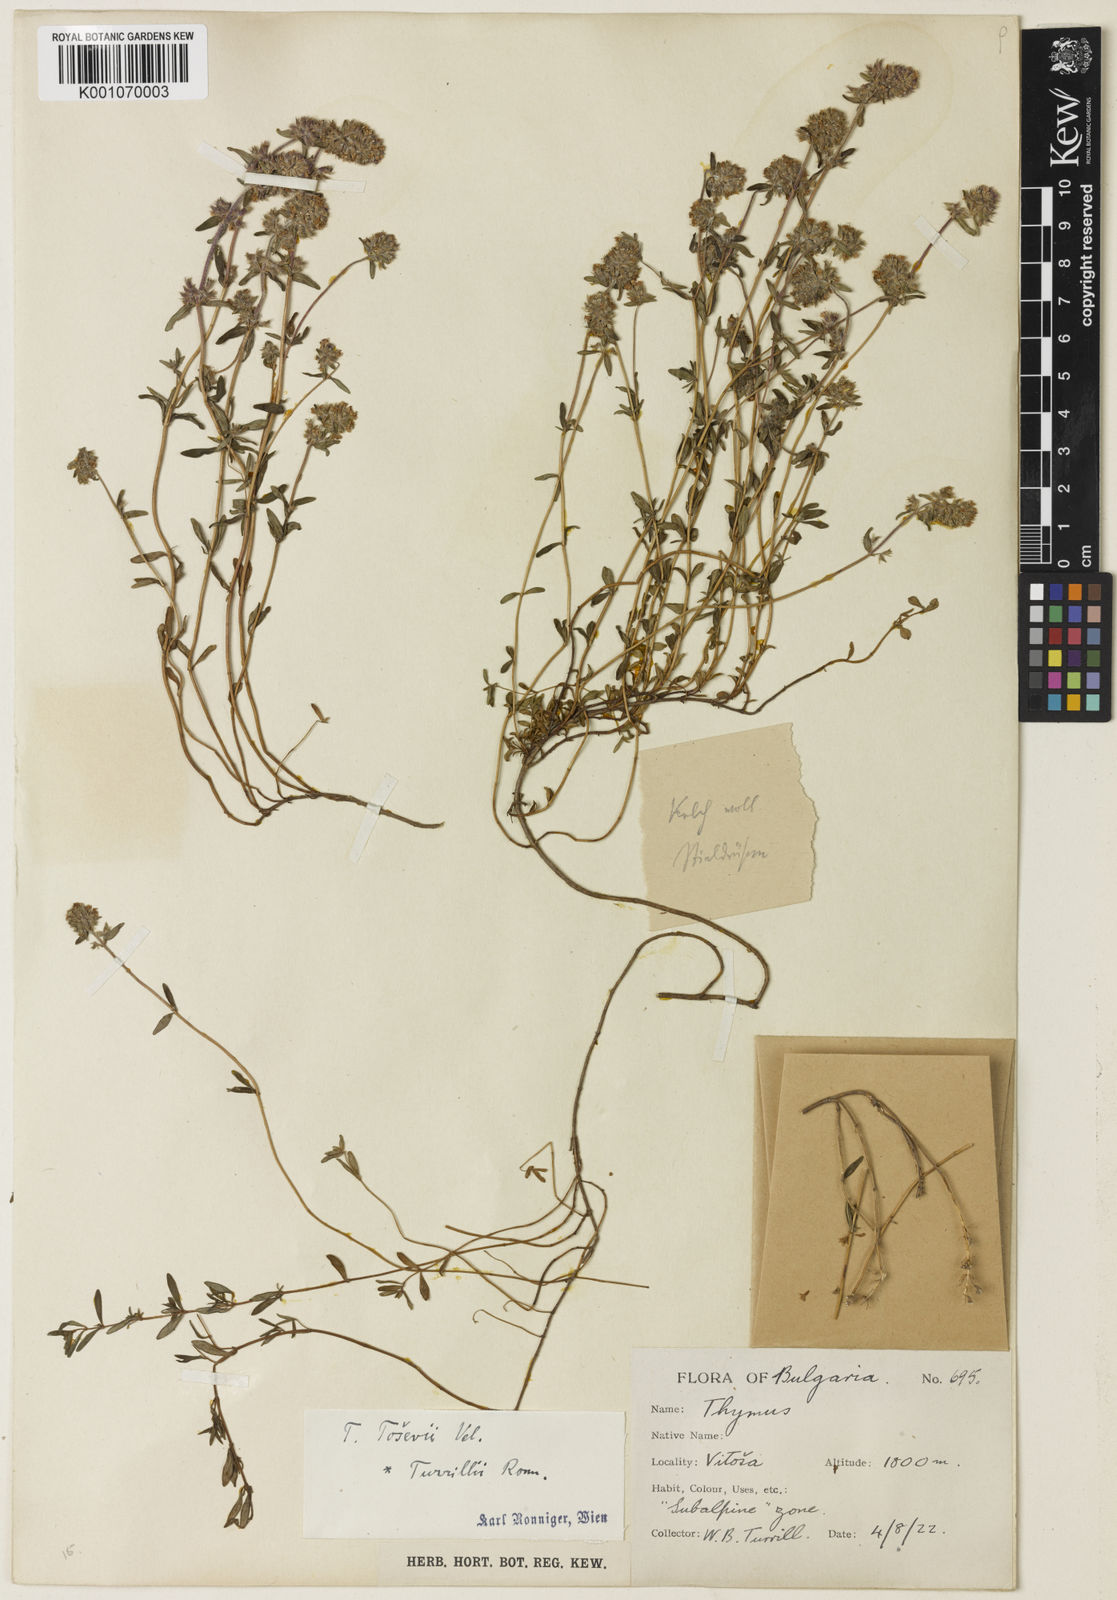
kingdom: Plantae
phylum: Tracheophyta
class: Magnoliopsida
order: Lamiales
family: Lamiaceae
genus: Thymus
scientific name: Thymus sibthorpii
